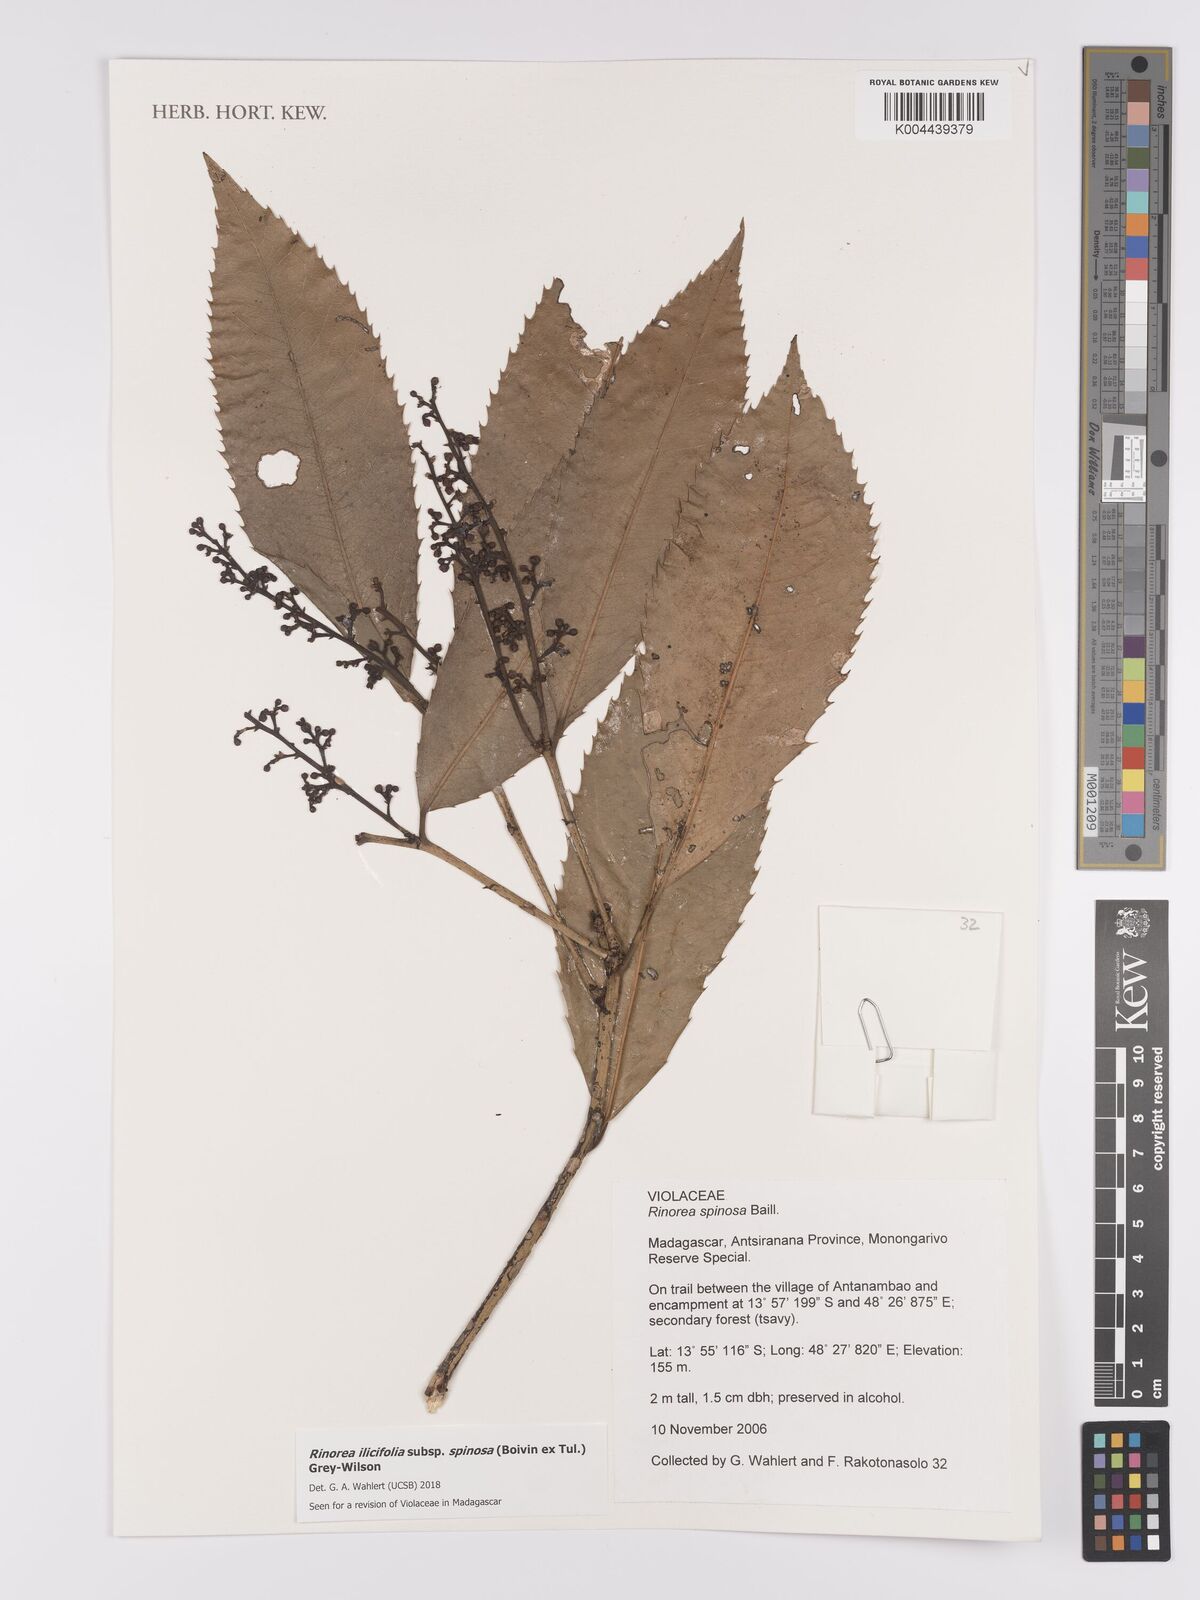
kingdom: Plantae
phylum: Tracheophyta
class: Magnoliopsida
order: Malpighiales
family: Violaceae
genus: Rinorea
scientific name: Rinorea spinosa
